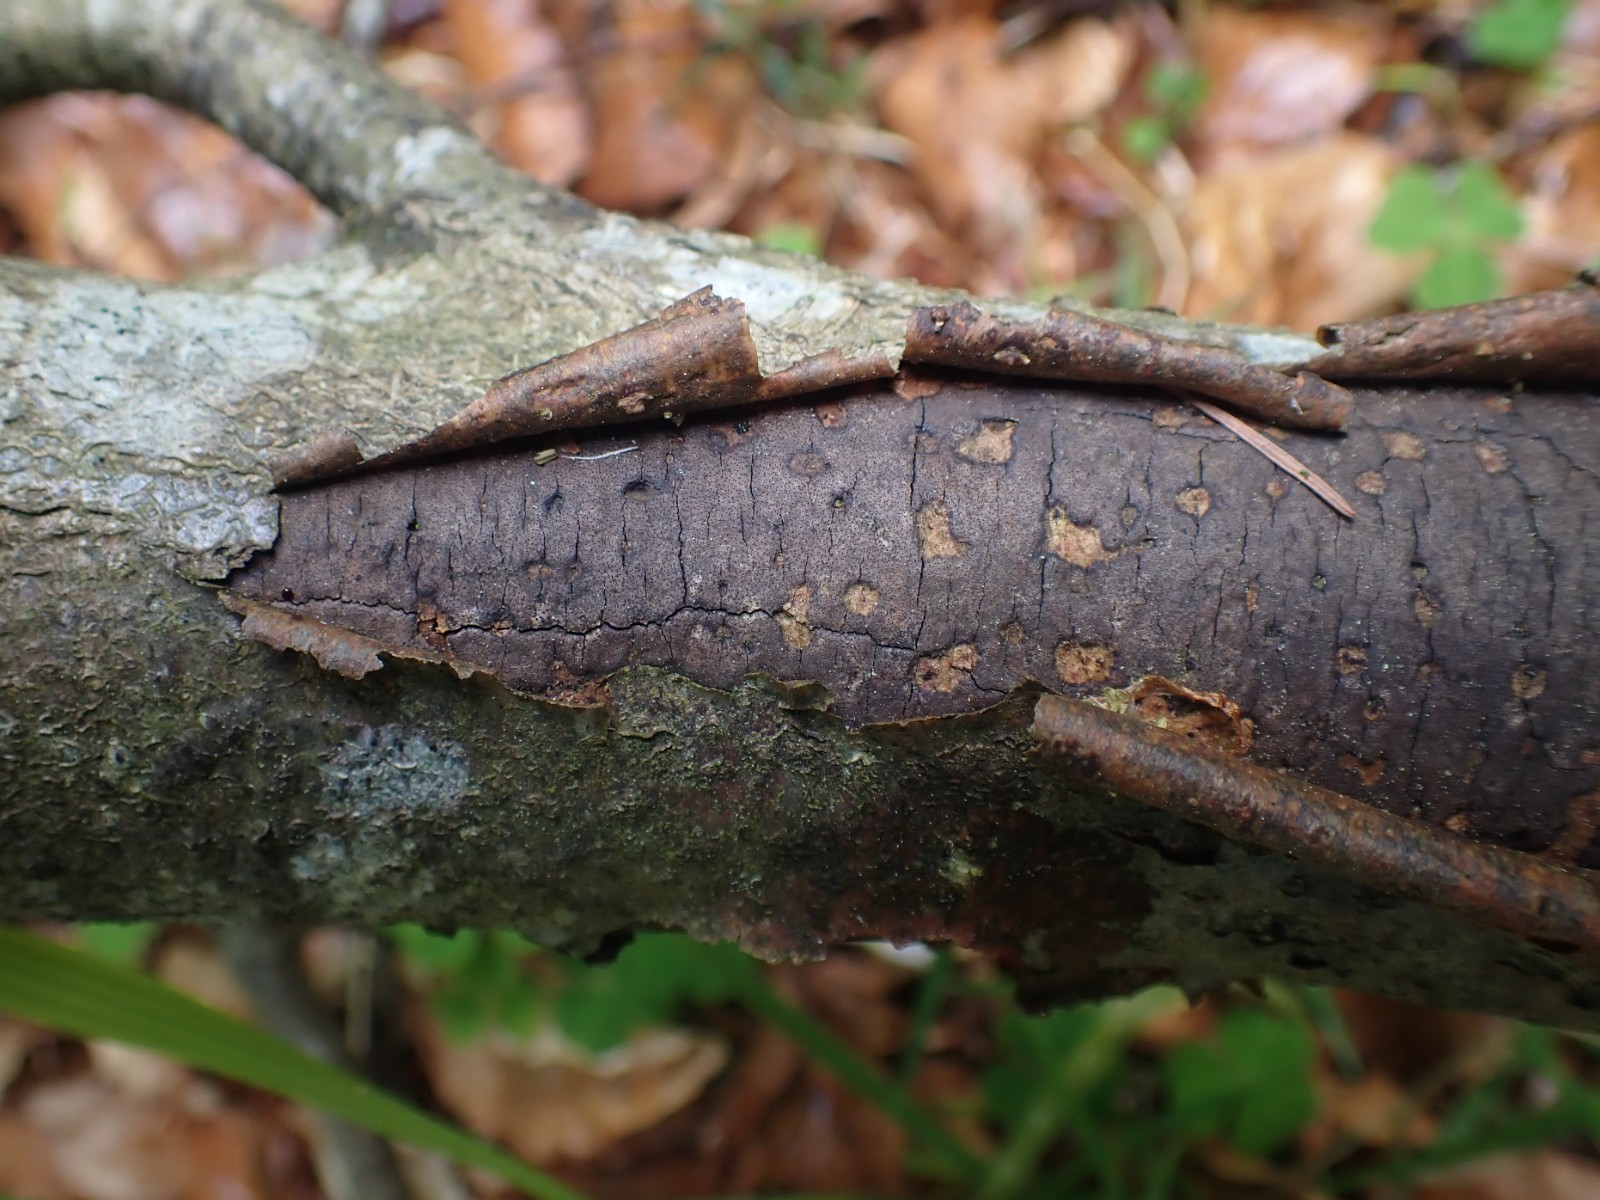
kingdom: Fungi
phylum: Ascomycota
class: Sordariomycetes
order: Xylariales
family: Diatrypaceae
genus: Diatrype
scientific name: Diatrype decorticata
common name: barksprænger-kulskorpe
